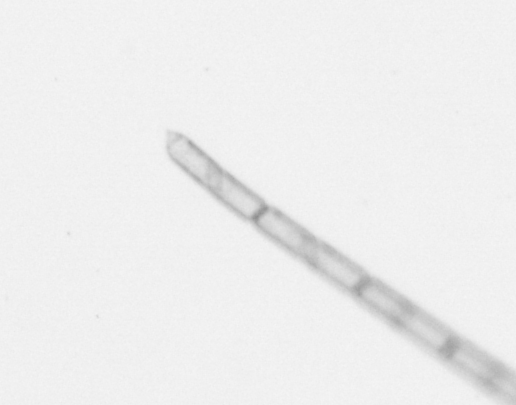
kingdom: Chromista
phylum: Ochrophyta
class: Bacillariophyceae
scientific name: Bacillariophyceae
